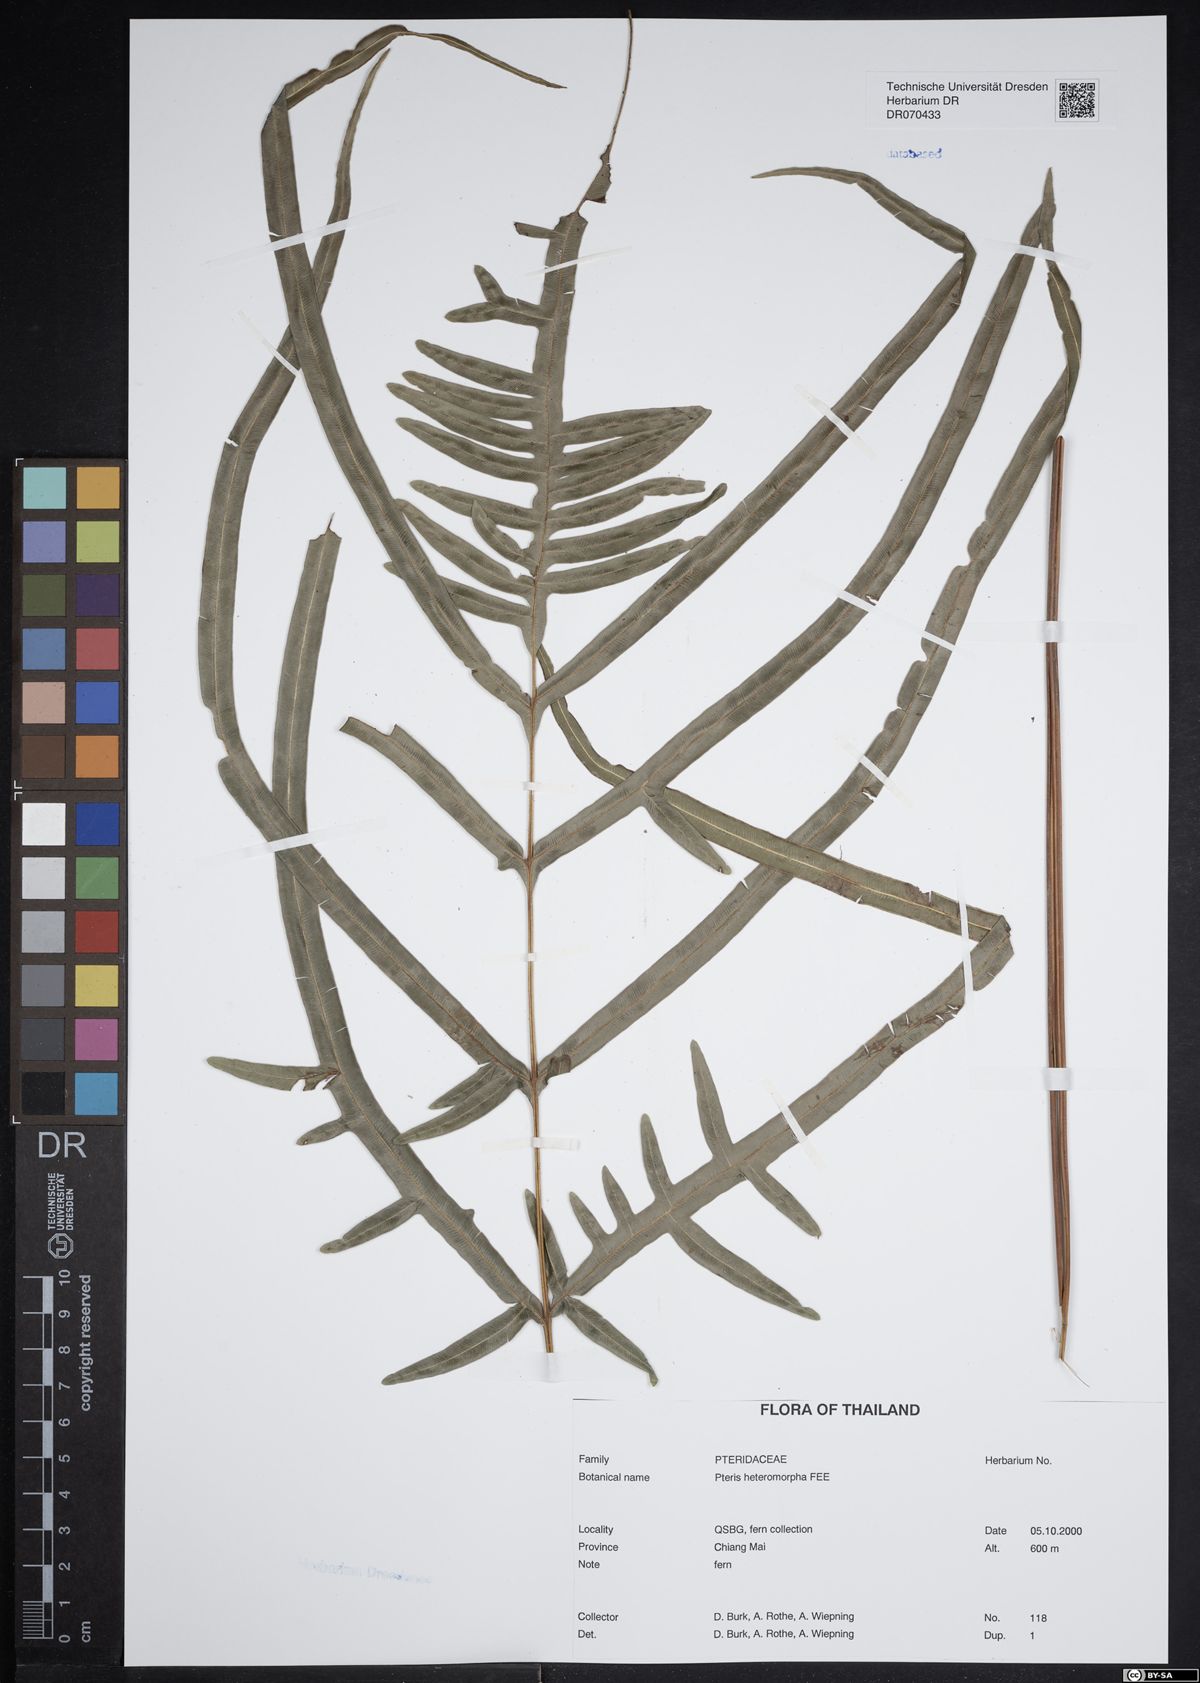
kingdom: Plantae
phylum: Tracheophyta
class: Polypodiopsida
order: Polypodiales
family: Pteridaceae
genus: Pteris
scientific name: Pteris heteromorpha
